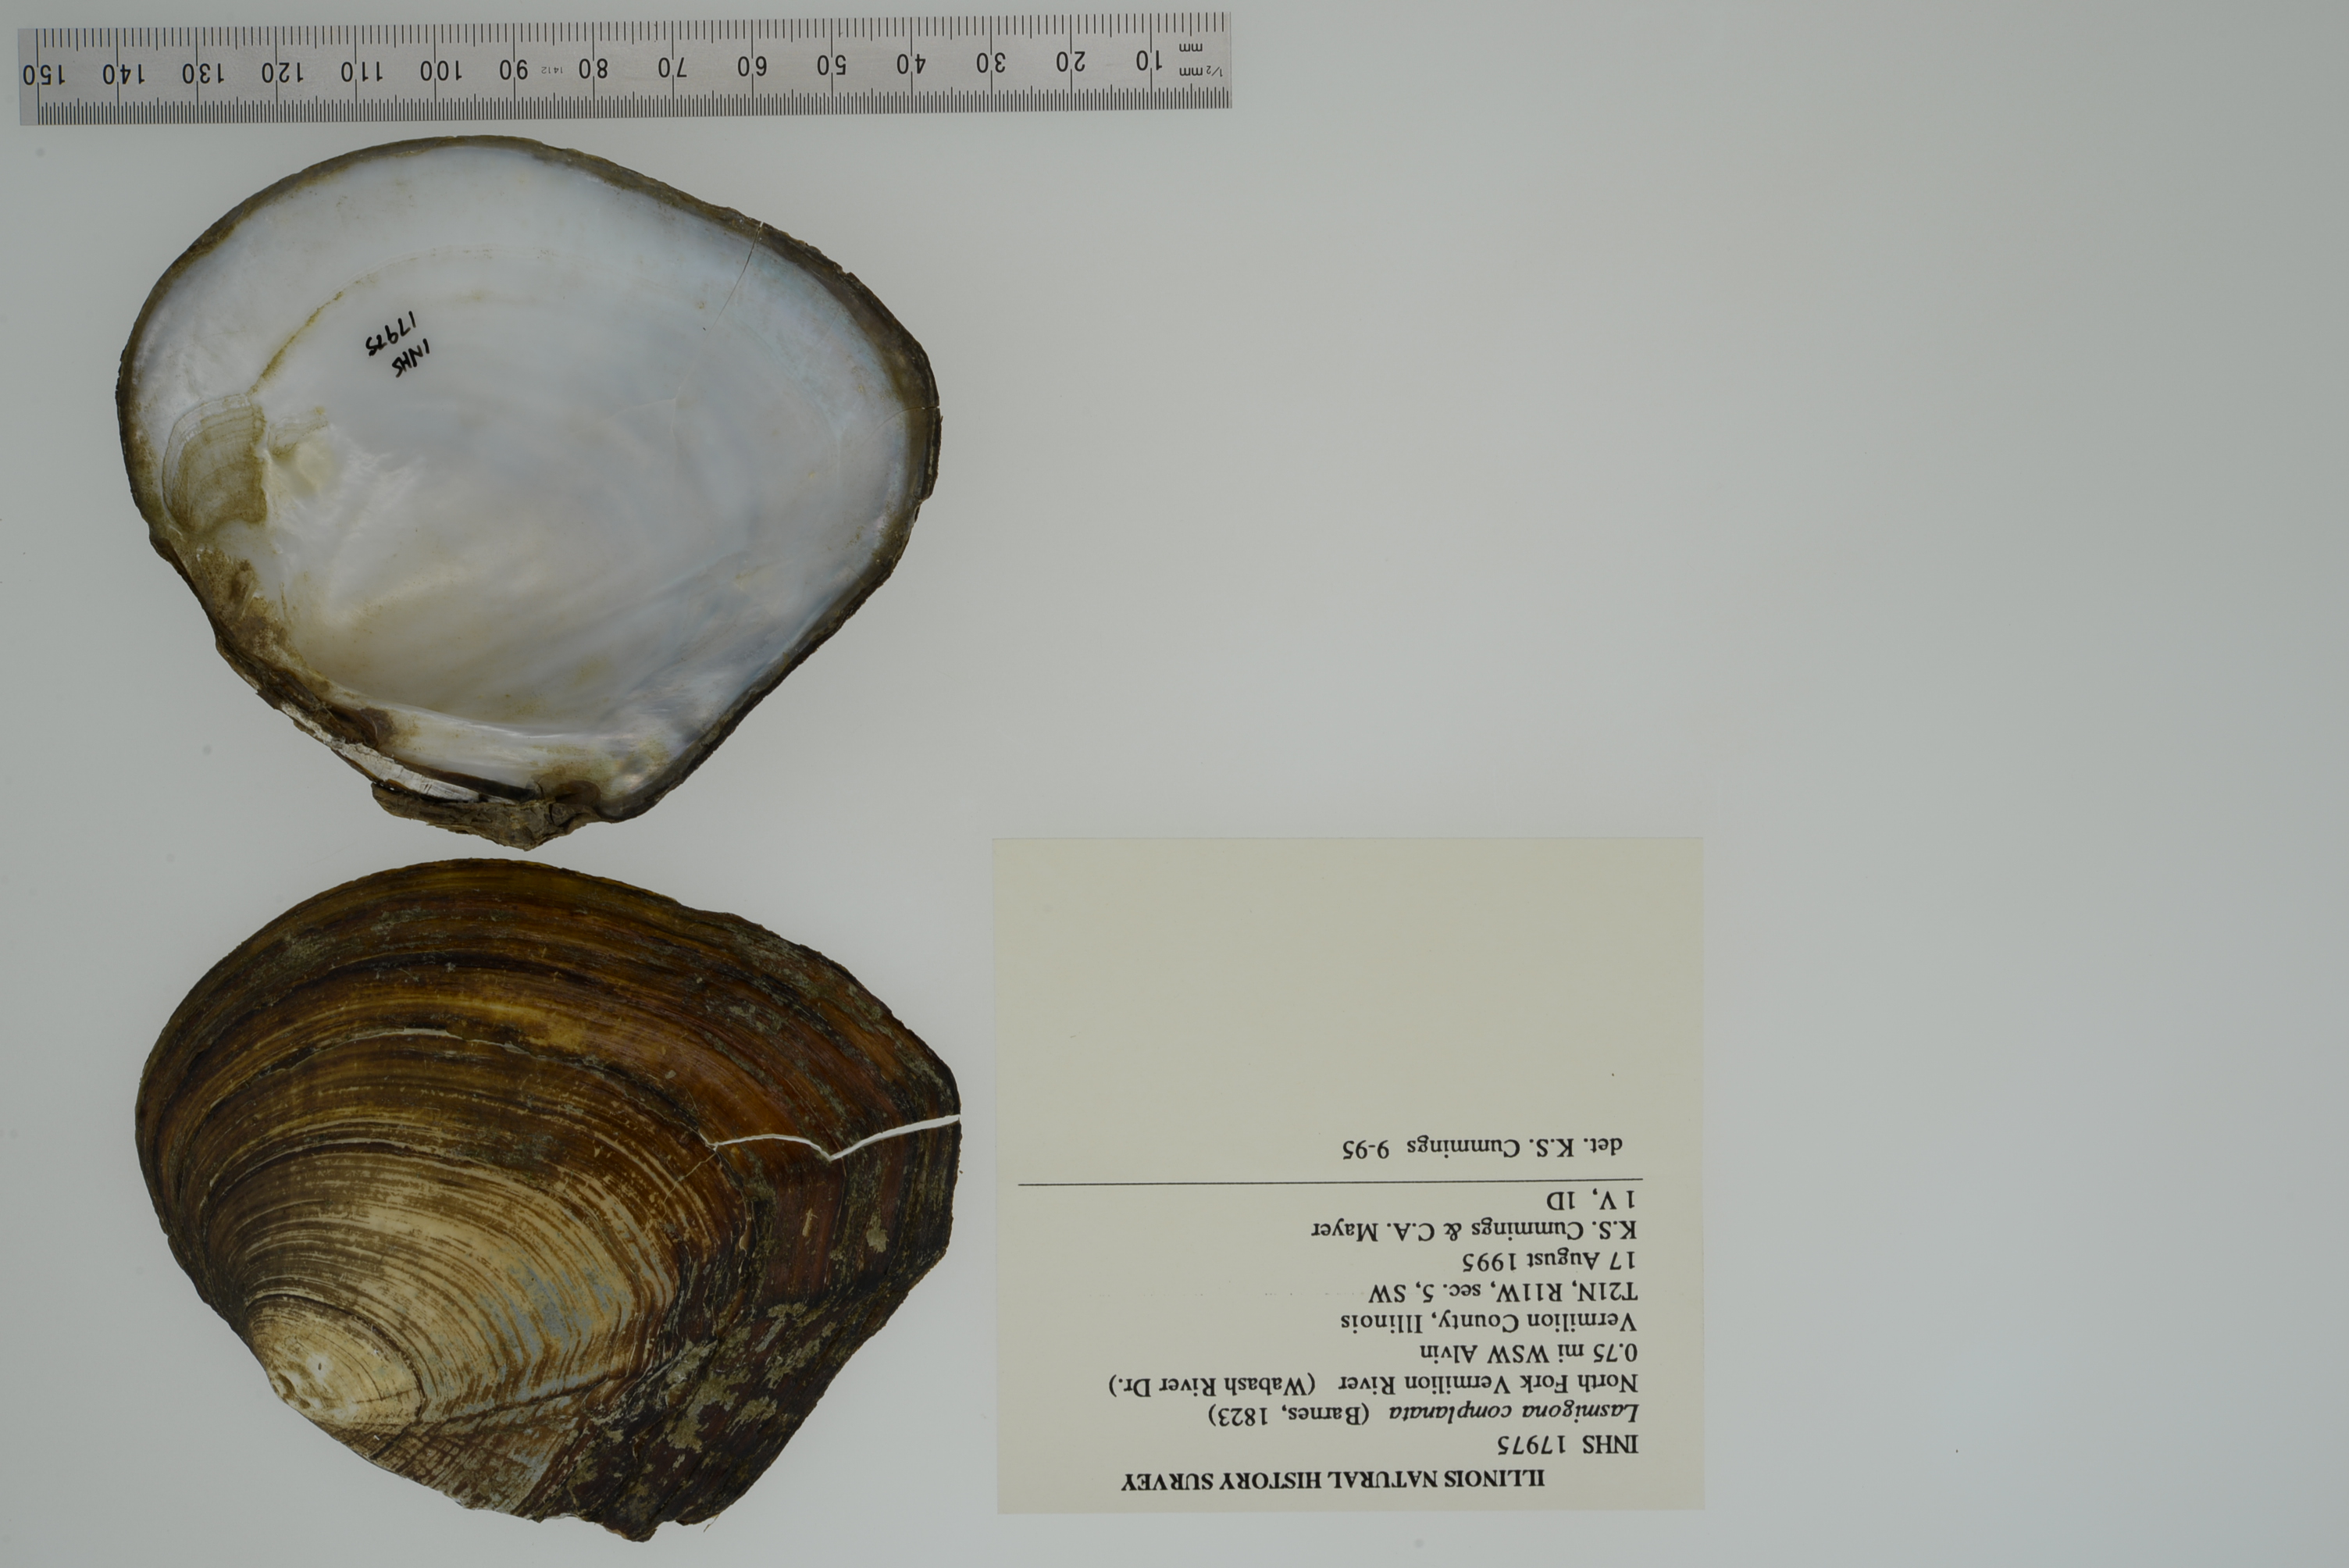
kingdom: Animalia
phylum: Mollusca
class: Bivalvia
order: Unionida
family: Unionidae
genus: Lasmigona
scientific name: Lasmigona complanata
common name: White heelsplitter
